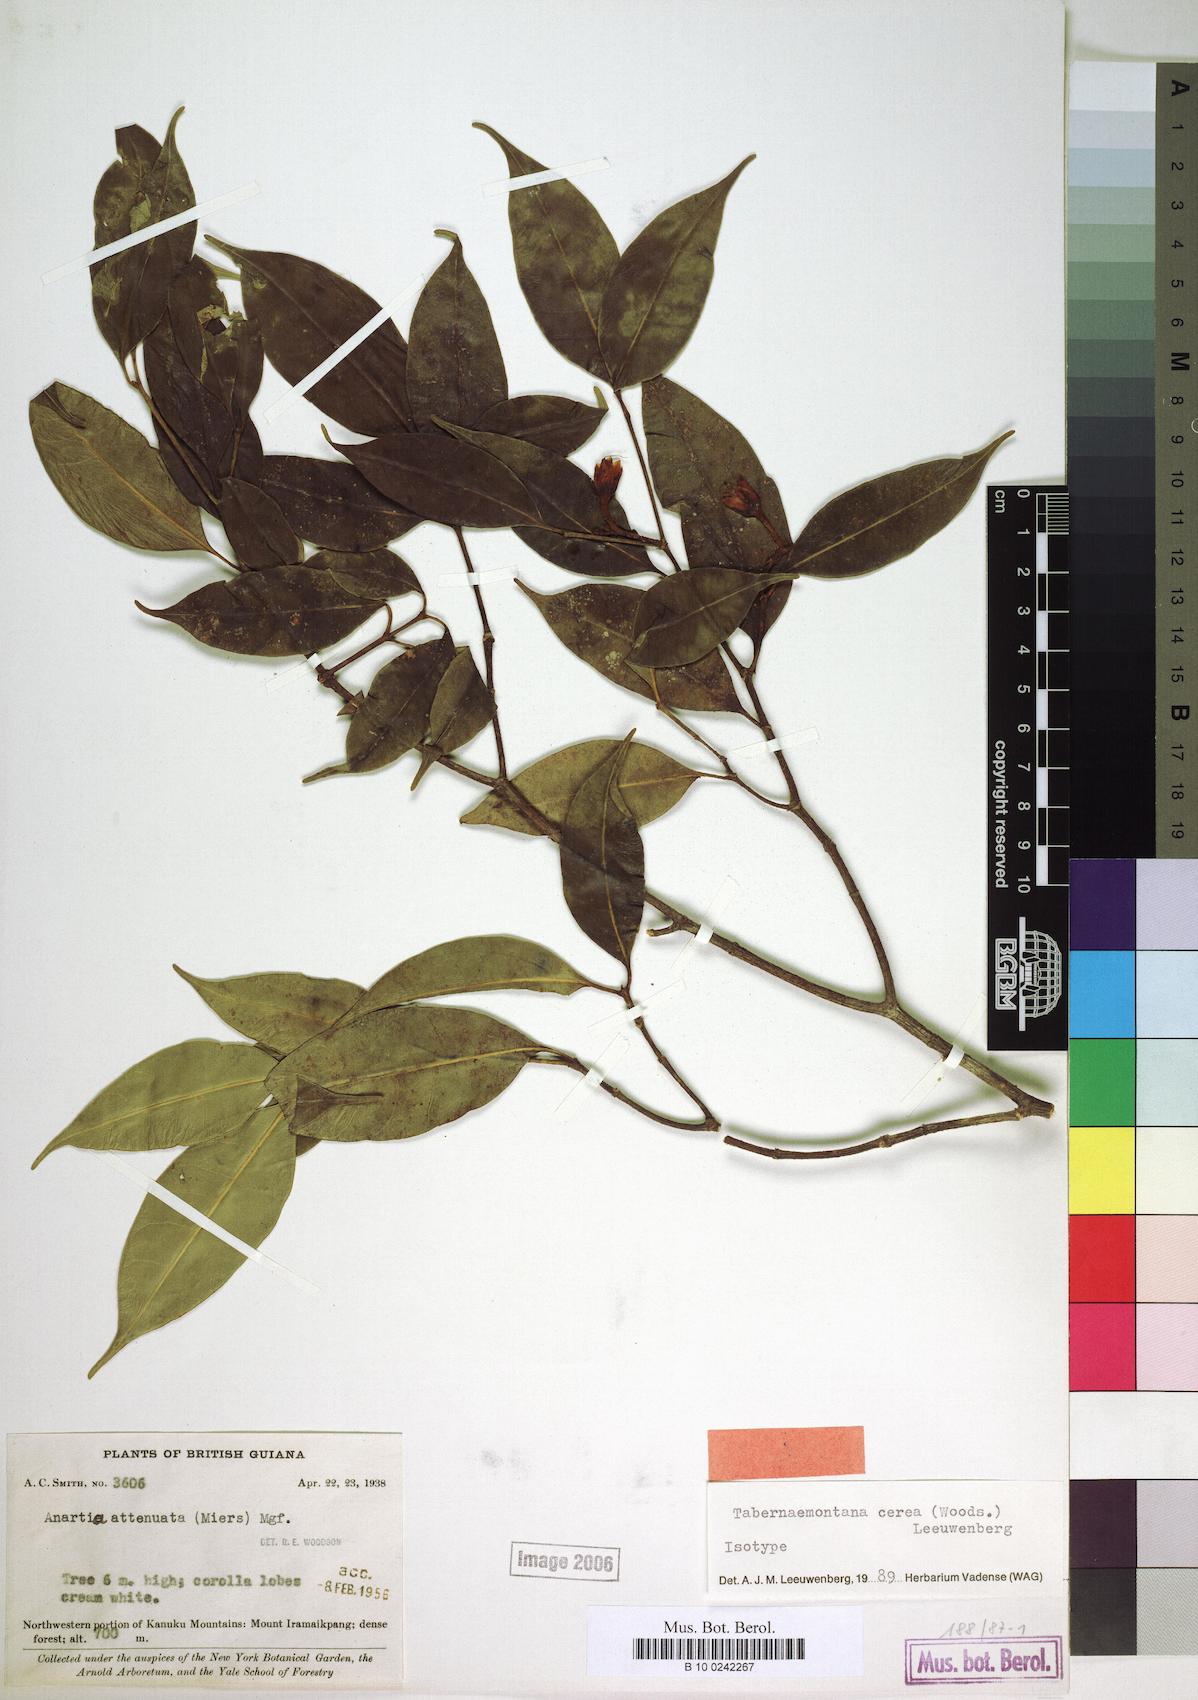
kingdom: Plantae
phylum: Tracheophyta
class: Magnoliopsida
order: Gentianales
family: Apocynaceae
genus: Tabernaemontana
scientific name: Tabernaemontana cerea
